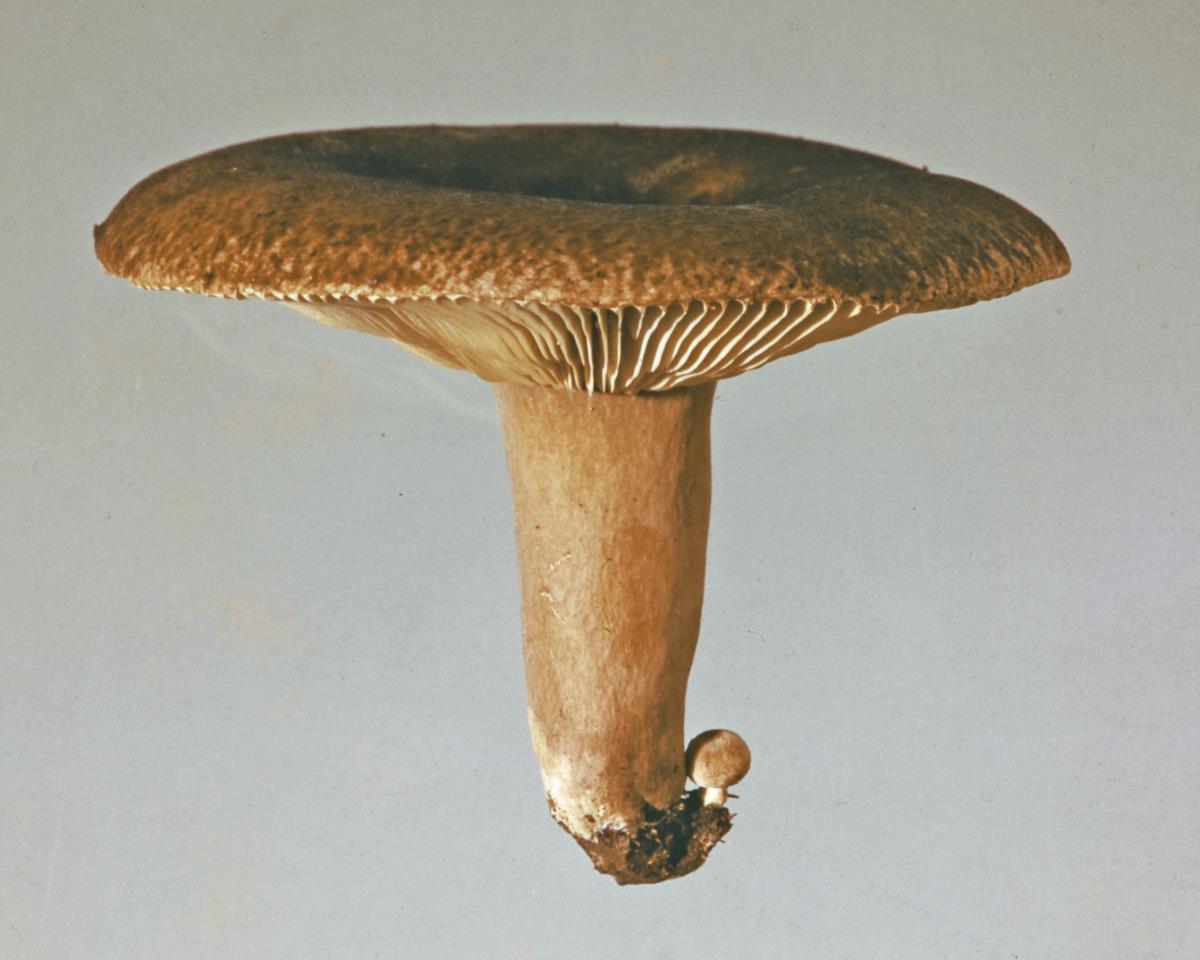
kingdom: Fungi
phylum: Basidiomycota
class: Agaricomycetes
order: Russulales
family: Russulaceae
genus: Russula
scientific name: Russula rimulosa
